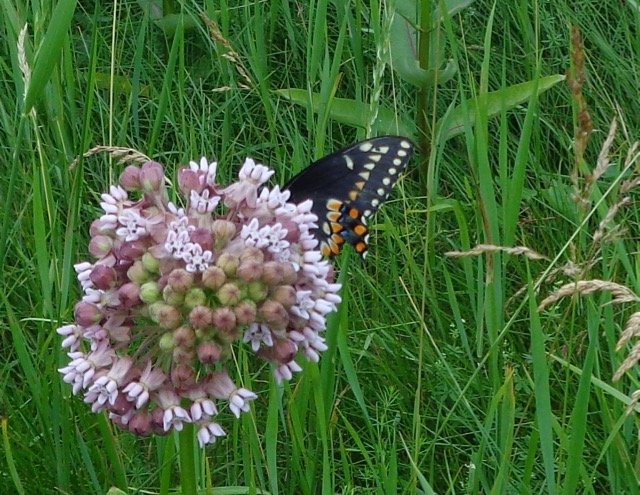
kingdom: Animalia
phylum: Arthropoda
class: Insecta
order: Lepidoptera
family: Papilionidae
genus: Papilio
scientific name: Papilio polyxenes
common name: Black Swallowtail
